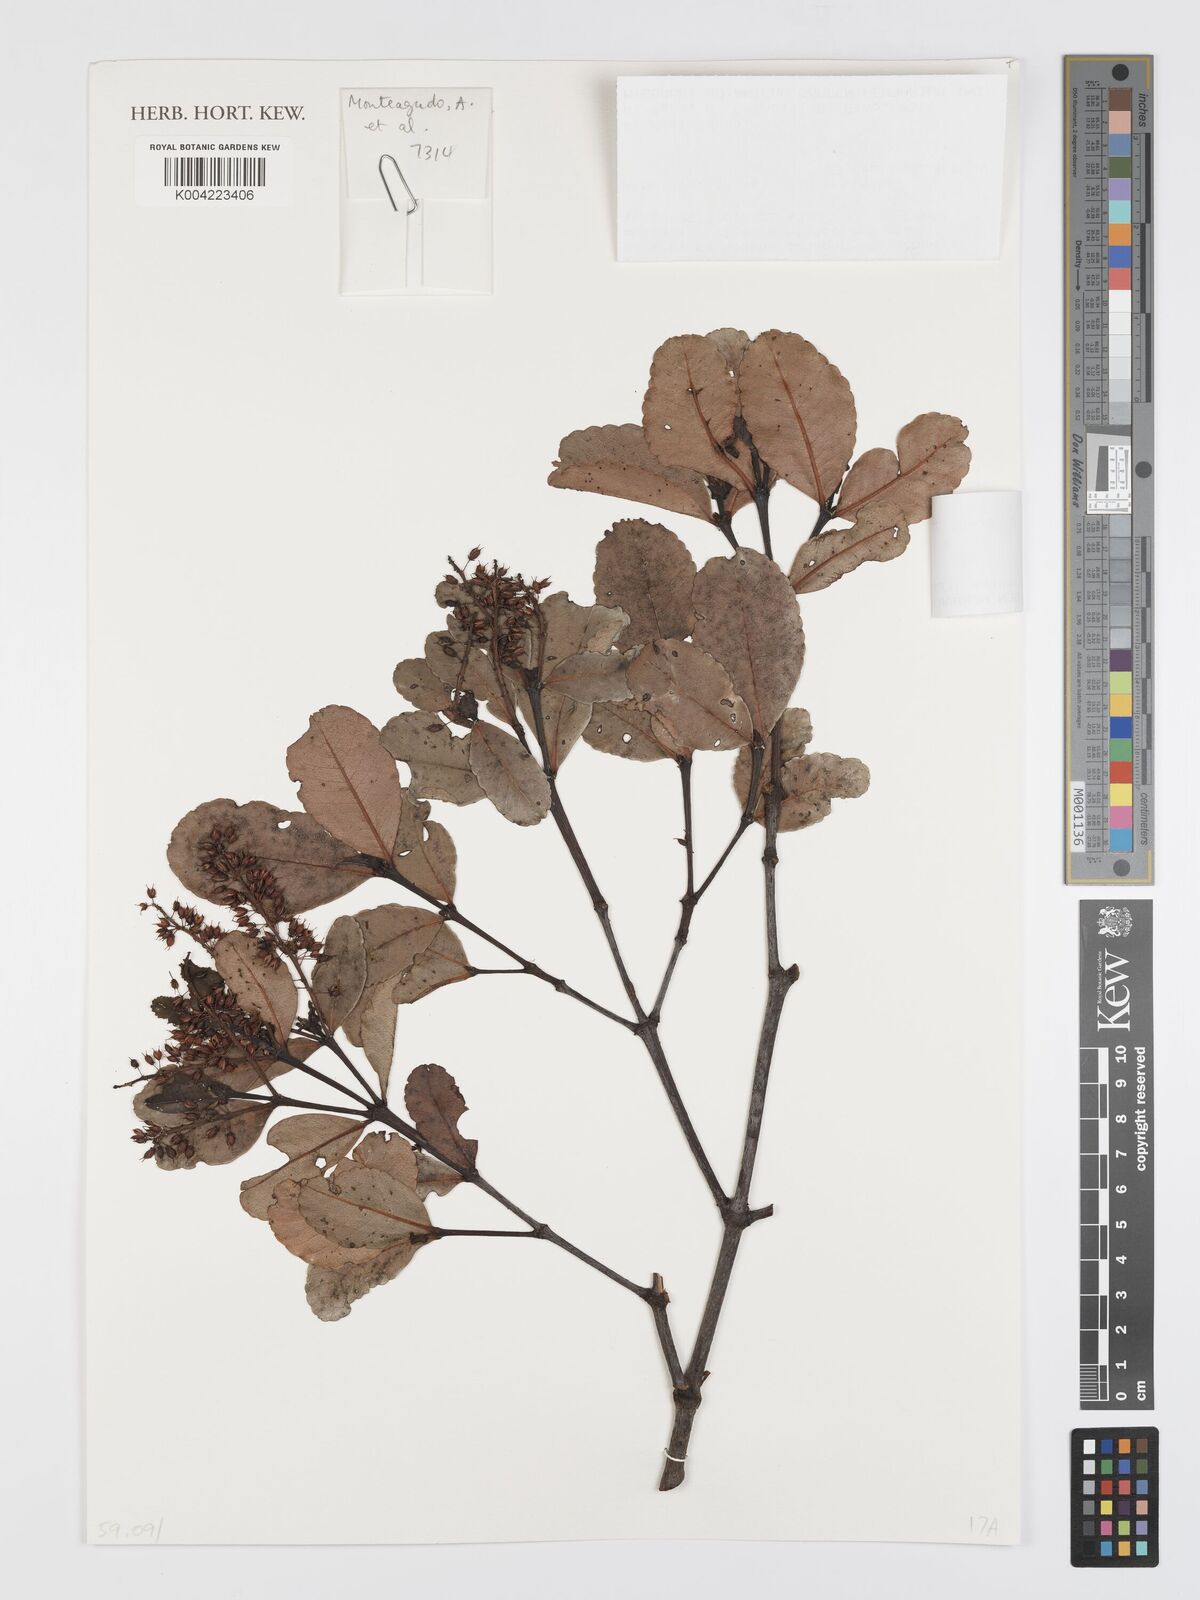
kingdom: Plantae
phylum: Tracheophyta
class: Magnoliopsida
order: Oxalidales
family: Cunoniaceae
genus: Weinmannia
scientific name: Weinmannia ovata
